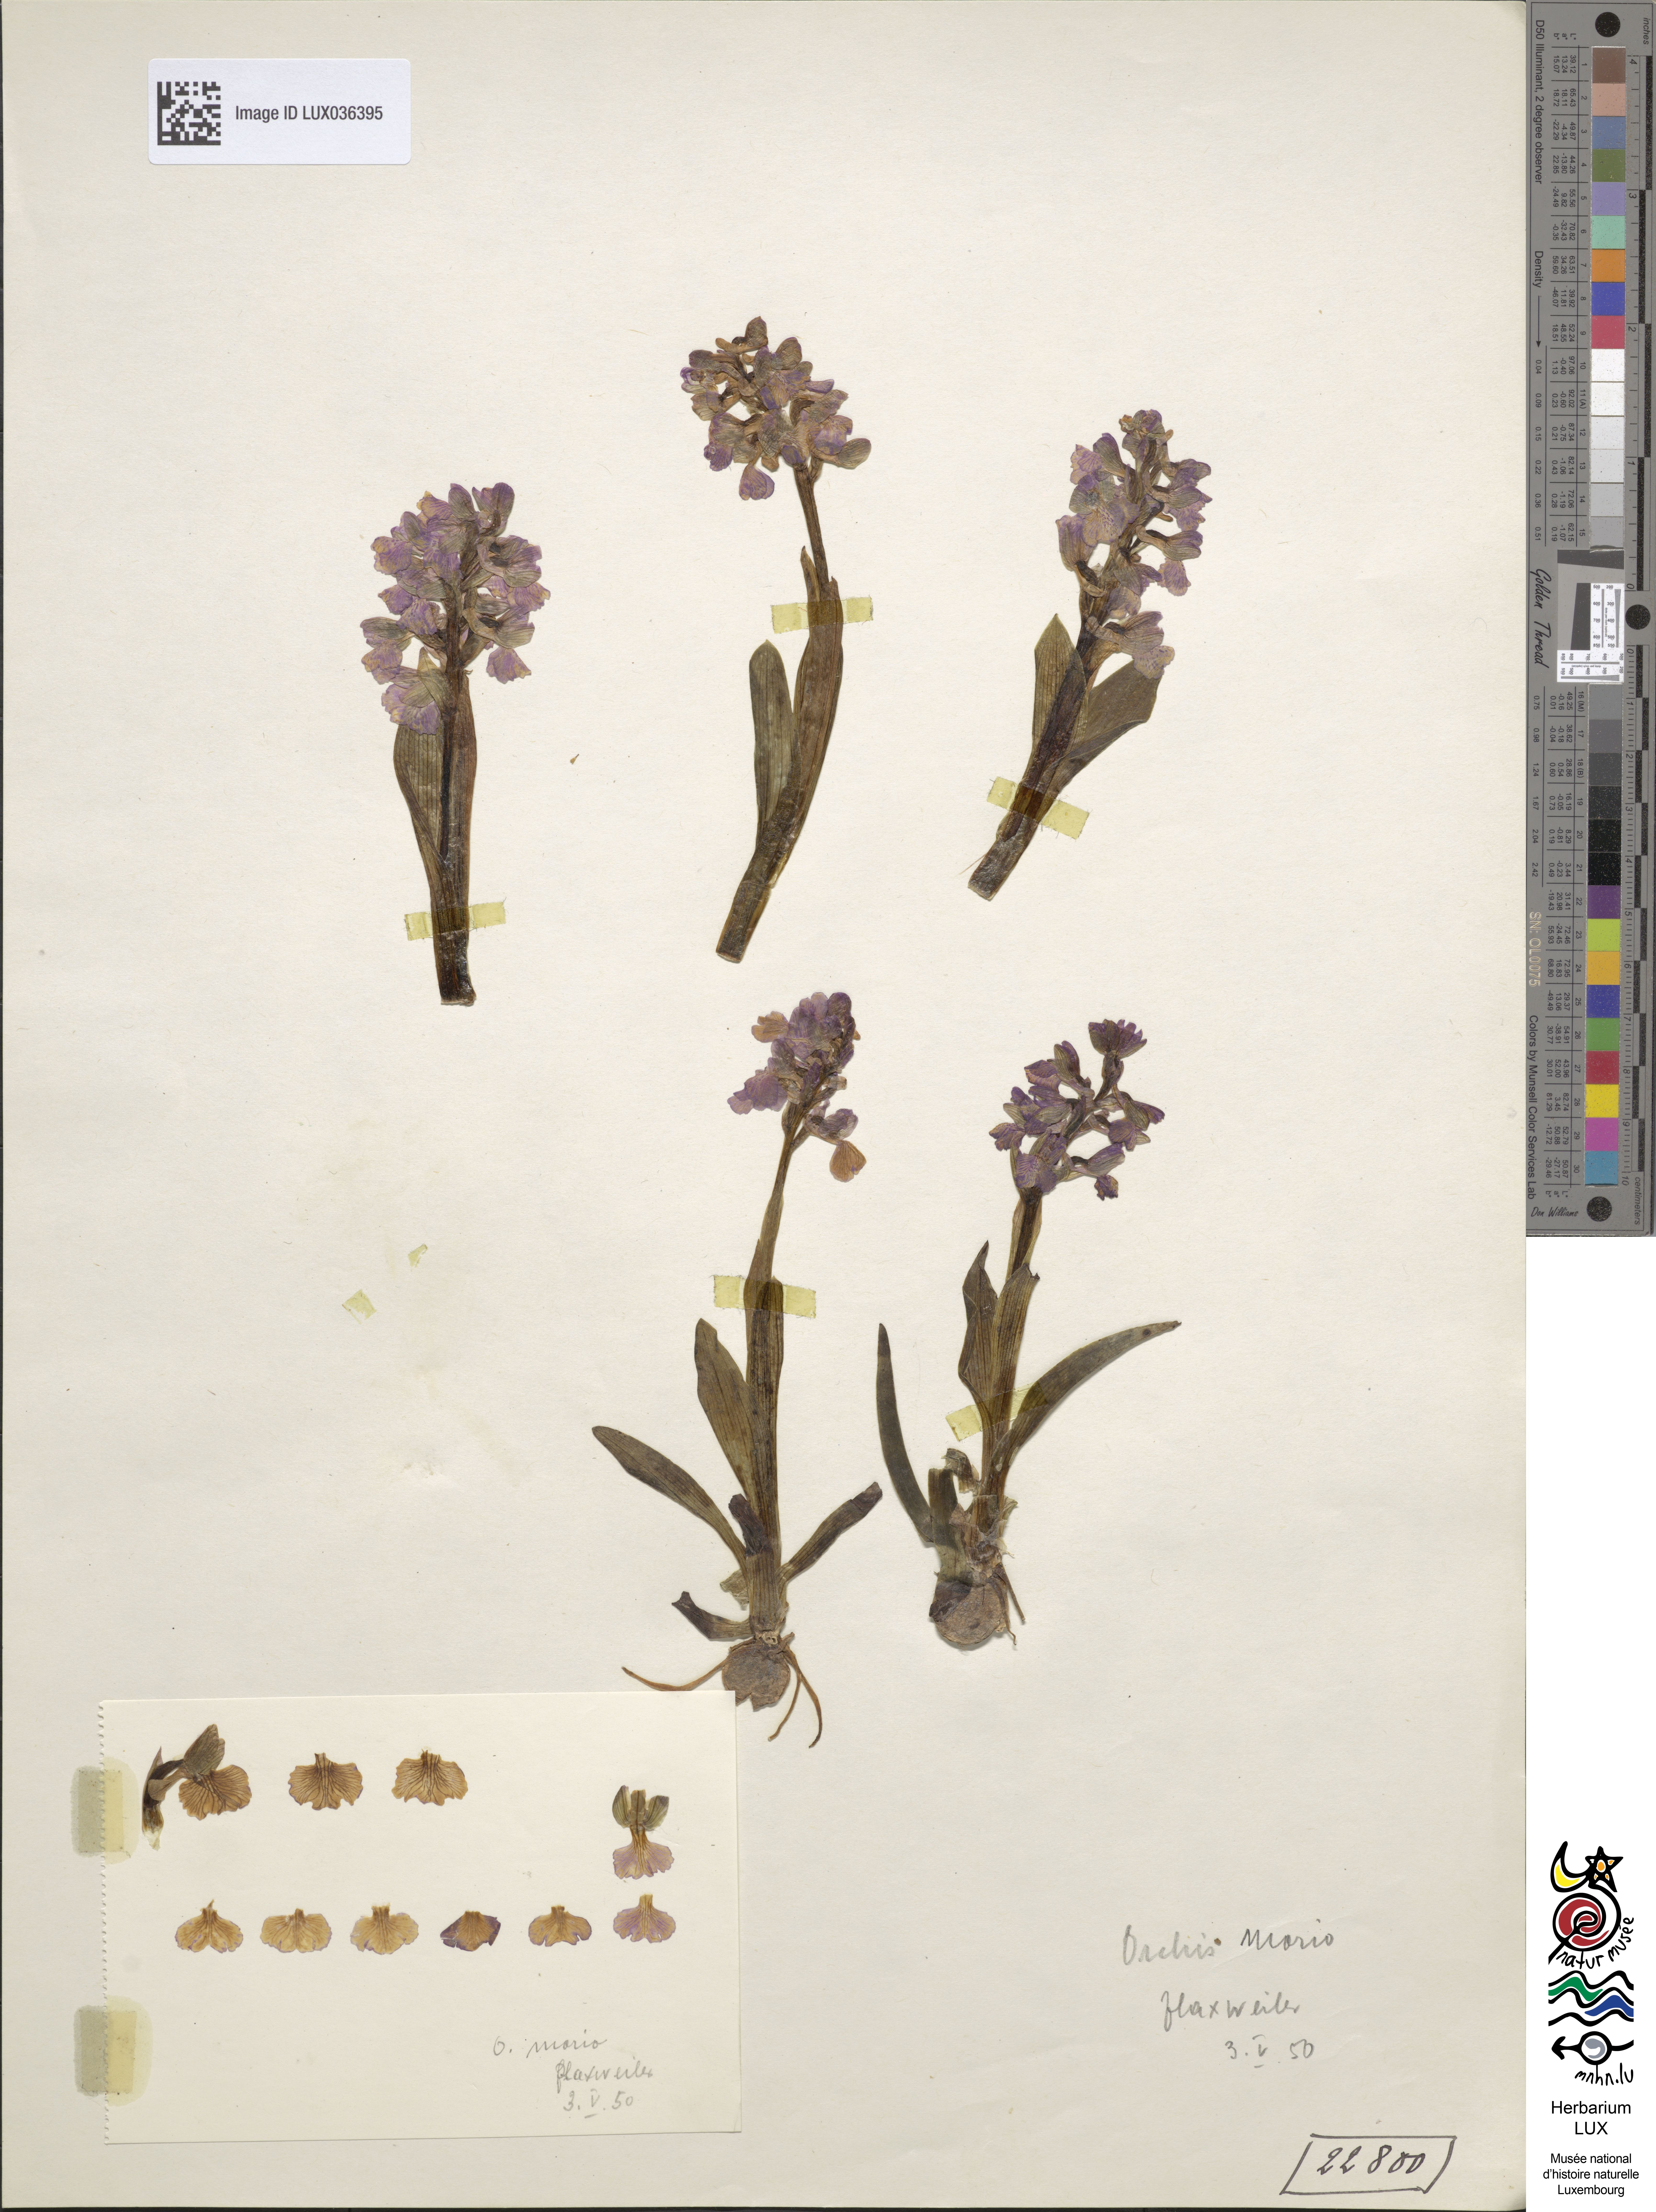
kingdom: Plantae
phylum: Tracheophyta
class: Liliopsida
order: Asparagales
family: Orchidaceae
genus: Anacamptis
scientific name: Anacamptis morio
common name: Green-winged orchid
